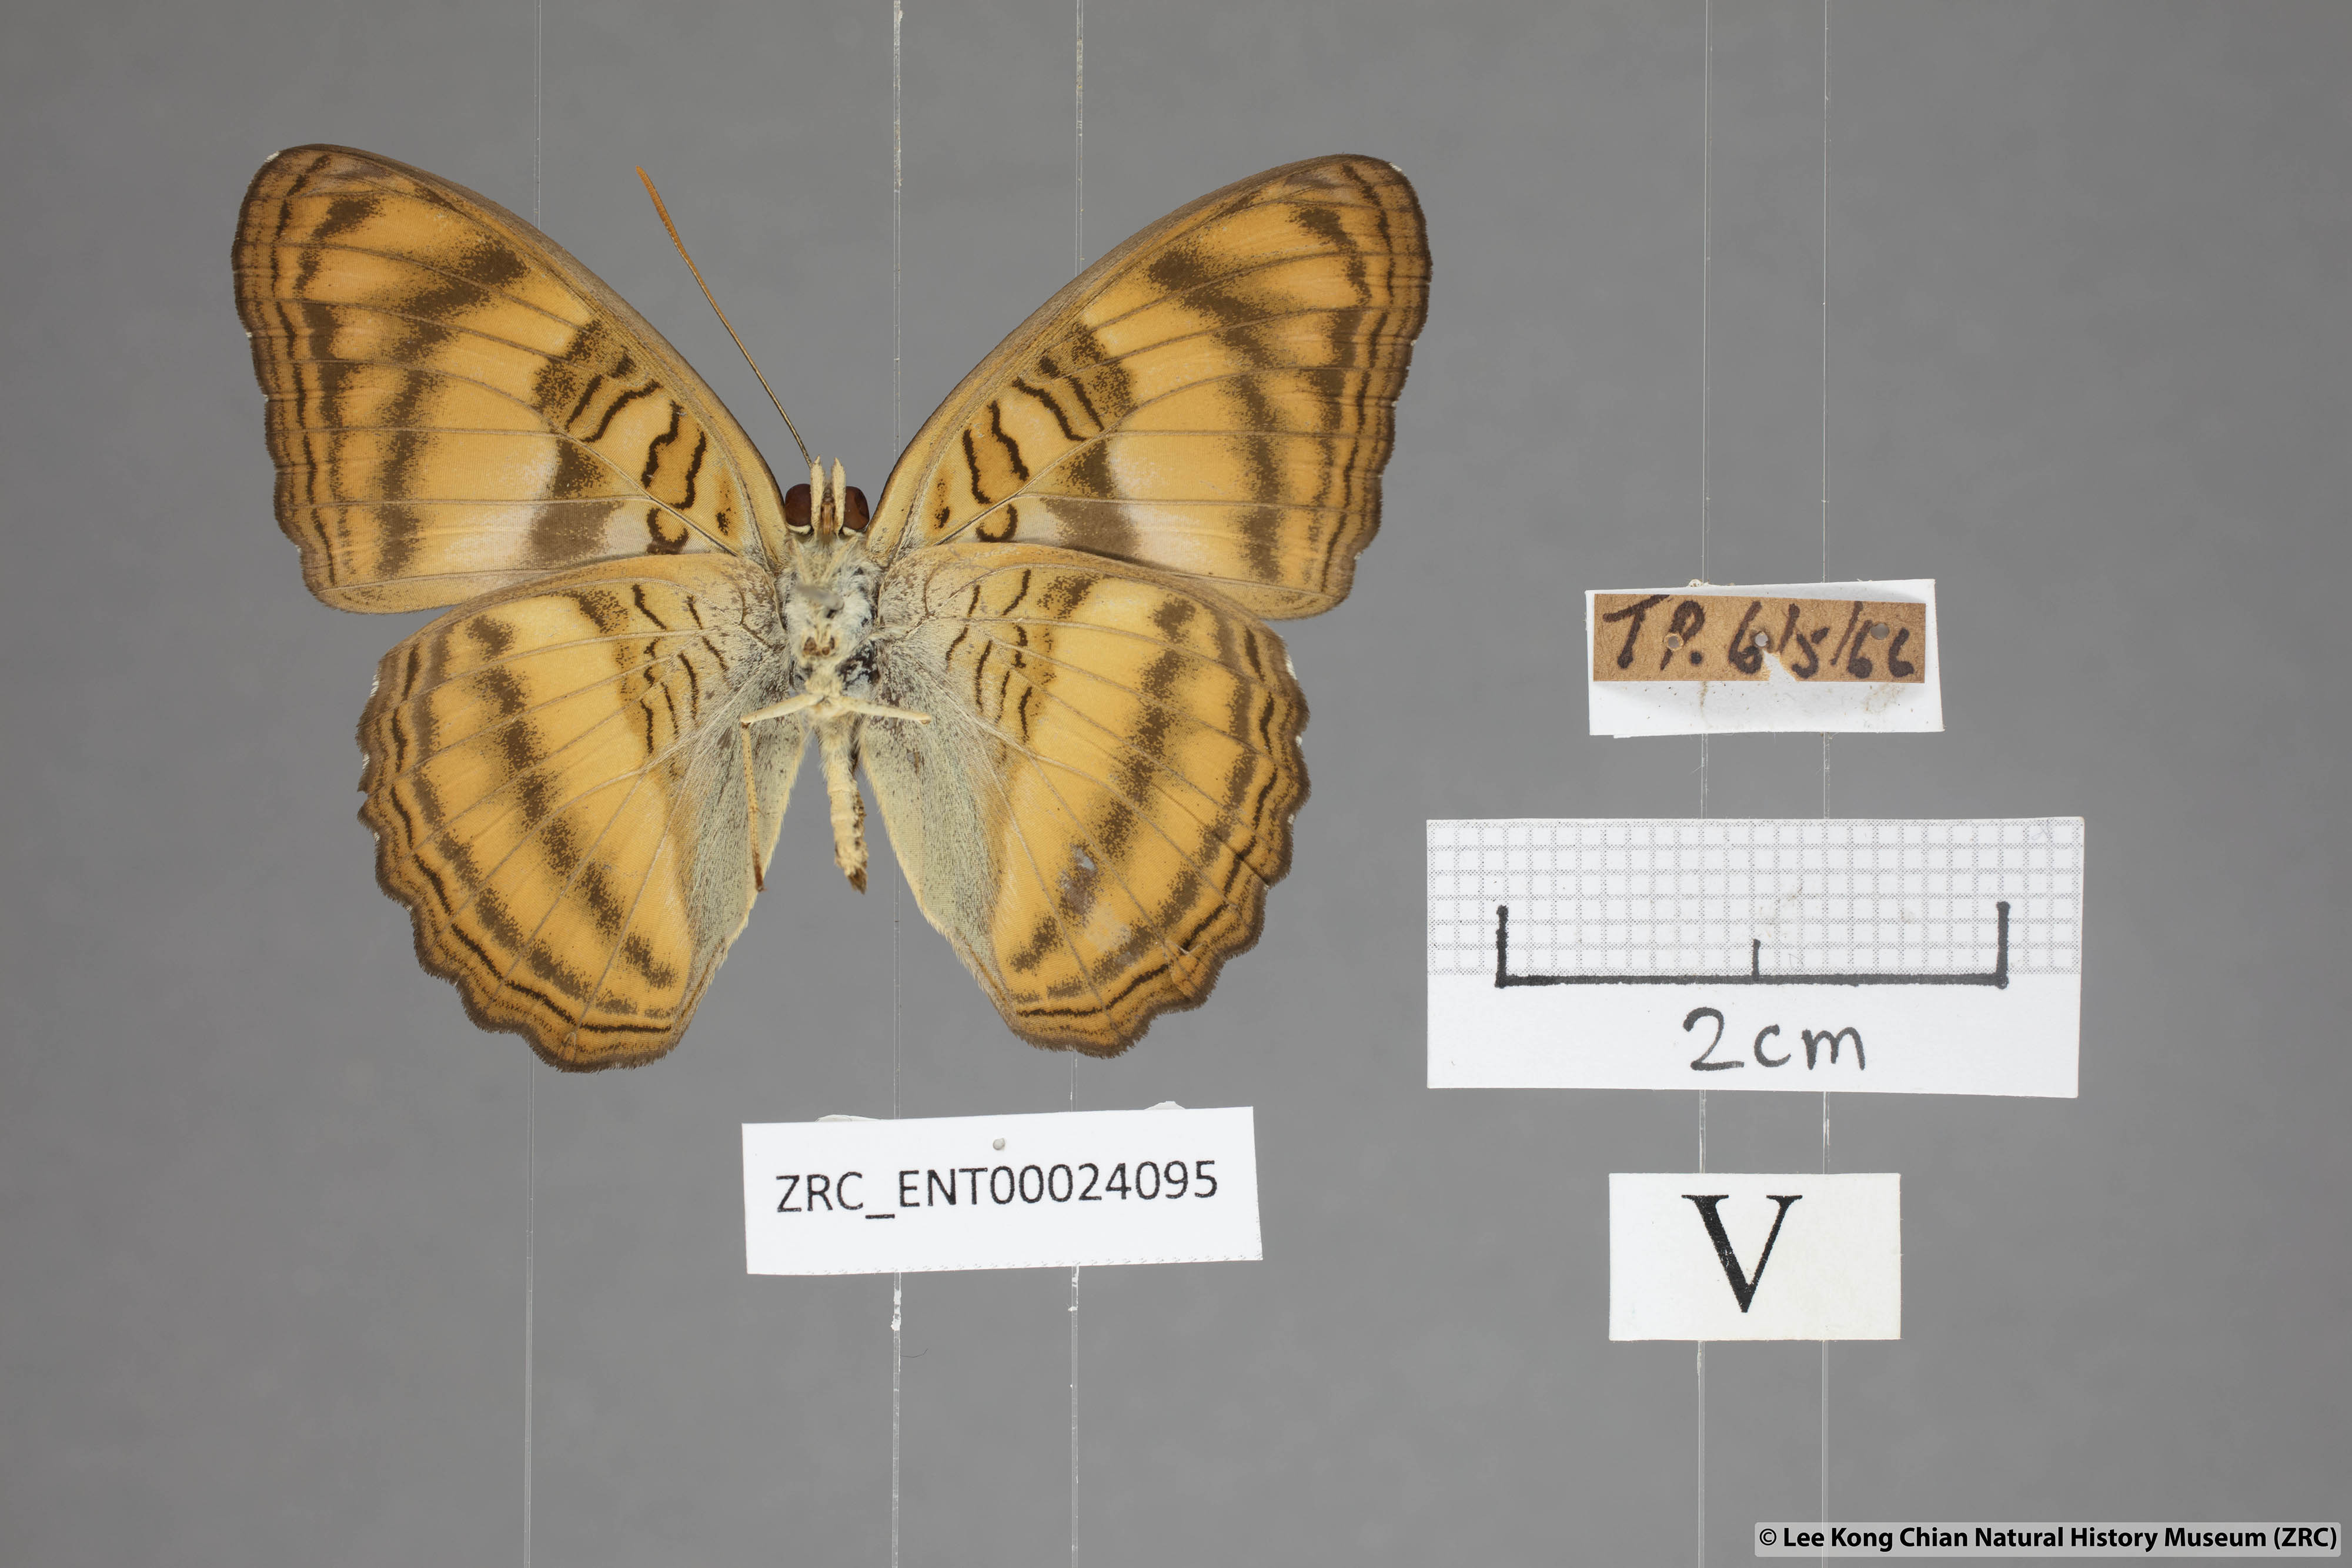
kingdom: Animalia
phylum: Arthropoda
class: Insecta
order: Lepidoptera
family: Nymphalidae
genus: Pandita
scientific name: Pandita sinope
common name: Colonel
